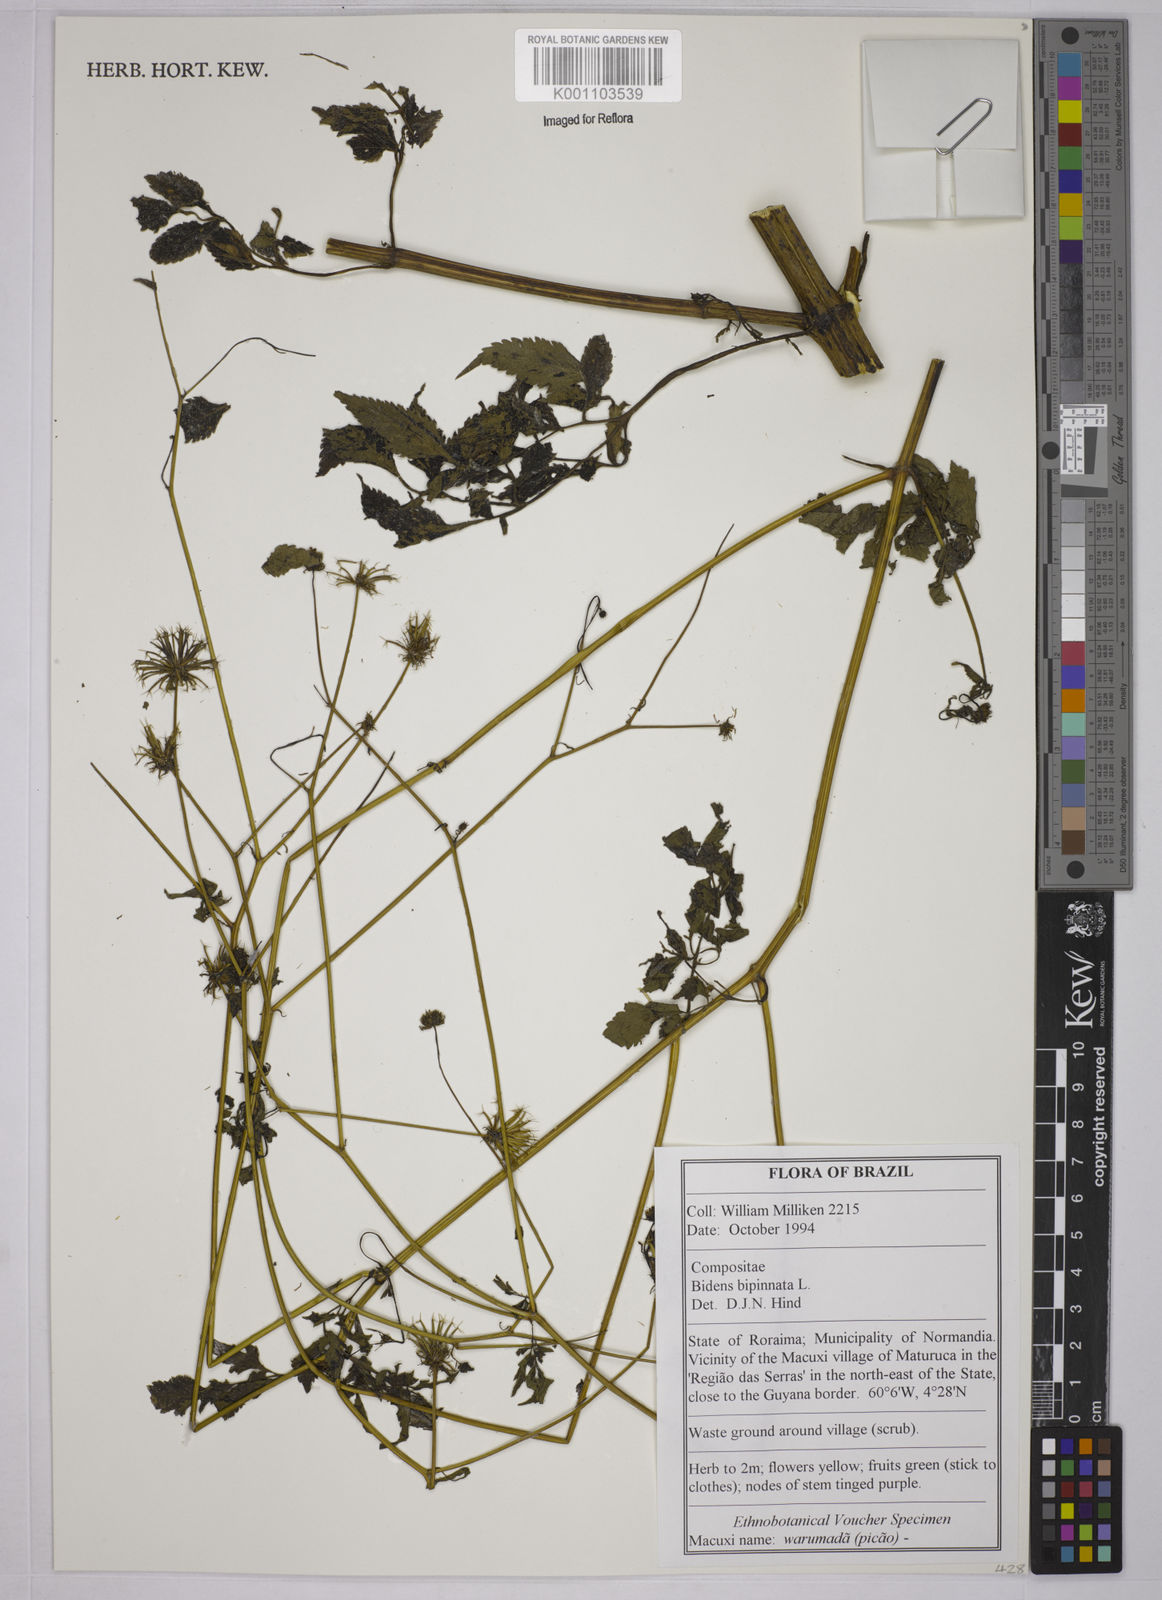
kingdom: Plantae
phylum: Tracheophyta
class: Magnoliopsida
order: Asterales
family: Asteraceae
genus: Bidens
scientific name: Bidens bipinnata
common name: Spanish-needles
